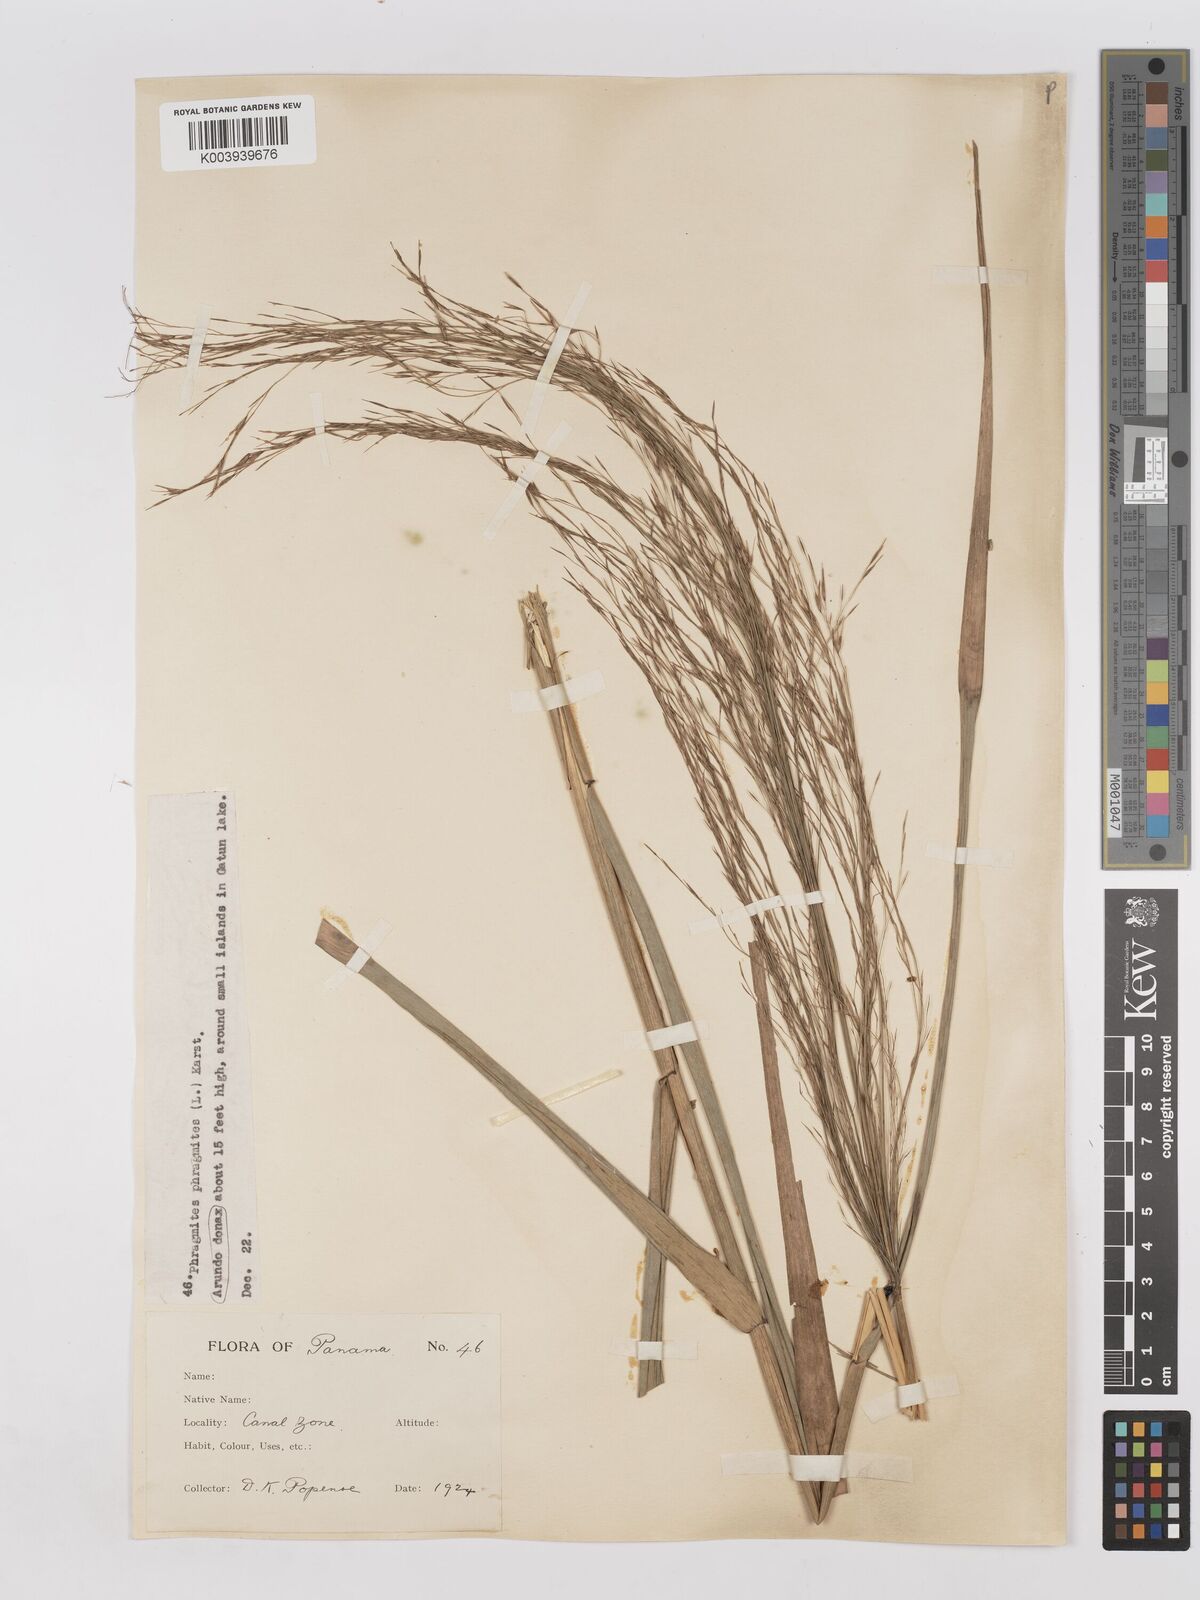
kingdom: Plantae
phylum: Tracheophyta
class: Liliopsida
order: Poales
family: Poaceae
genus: Phragmites
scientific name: Phragmites australis
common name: Common reed
